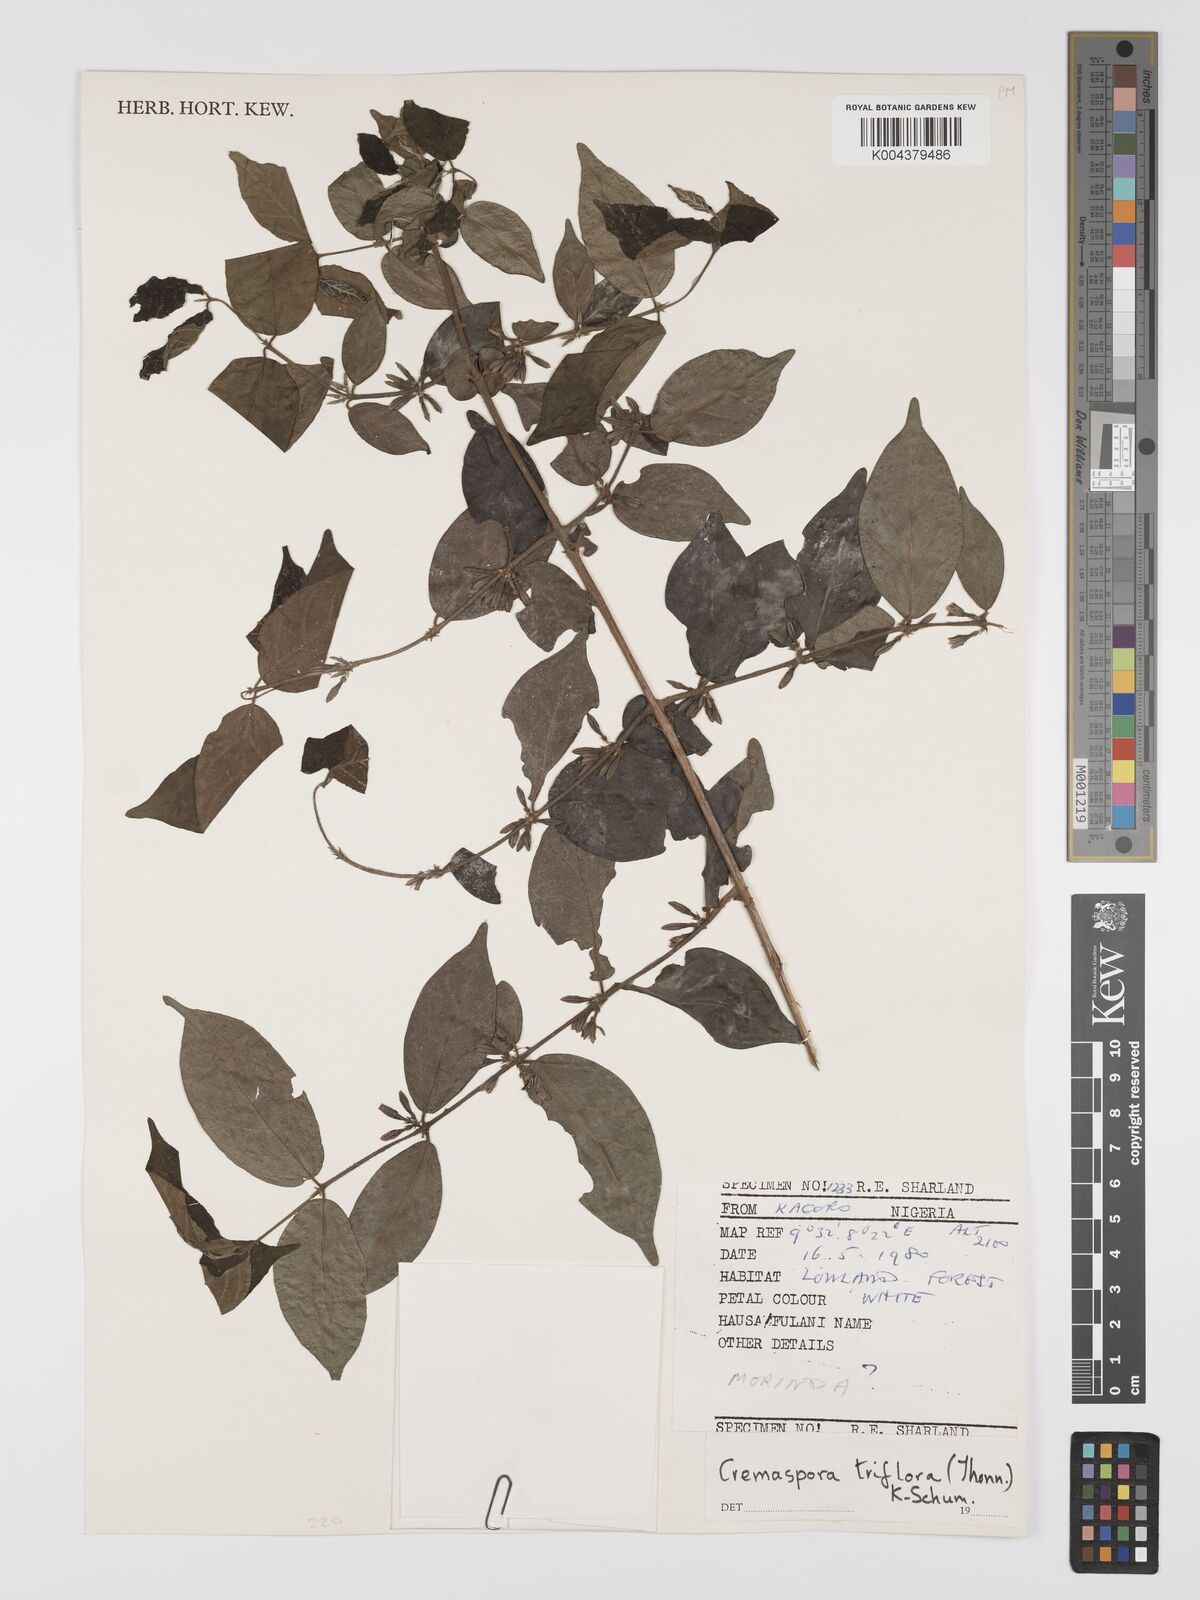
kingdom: Plantae
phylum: Tracheophyta
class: Magnoliopsida
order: Gentianales
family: Rubiaceae
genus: Cremaspora
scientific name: Cremaspora triflora
